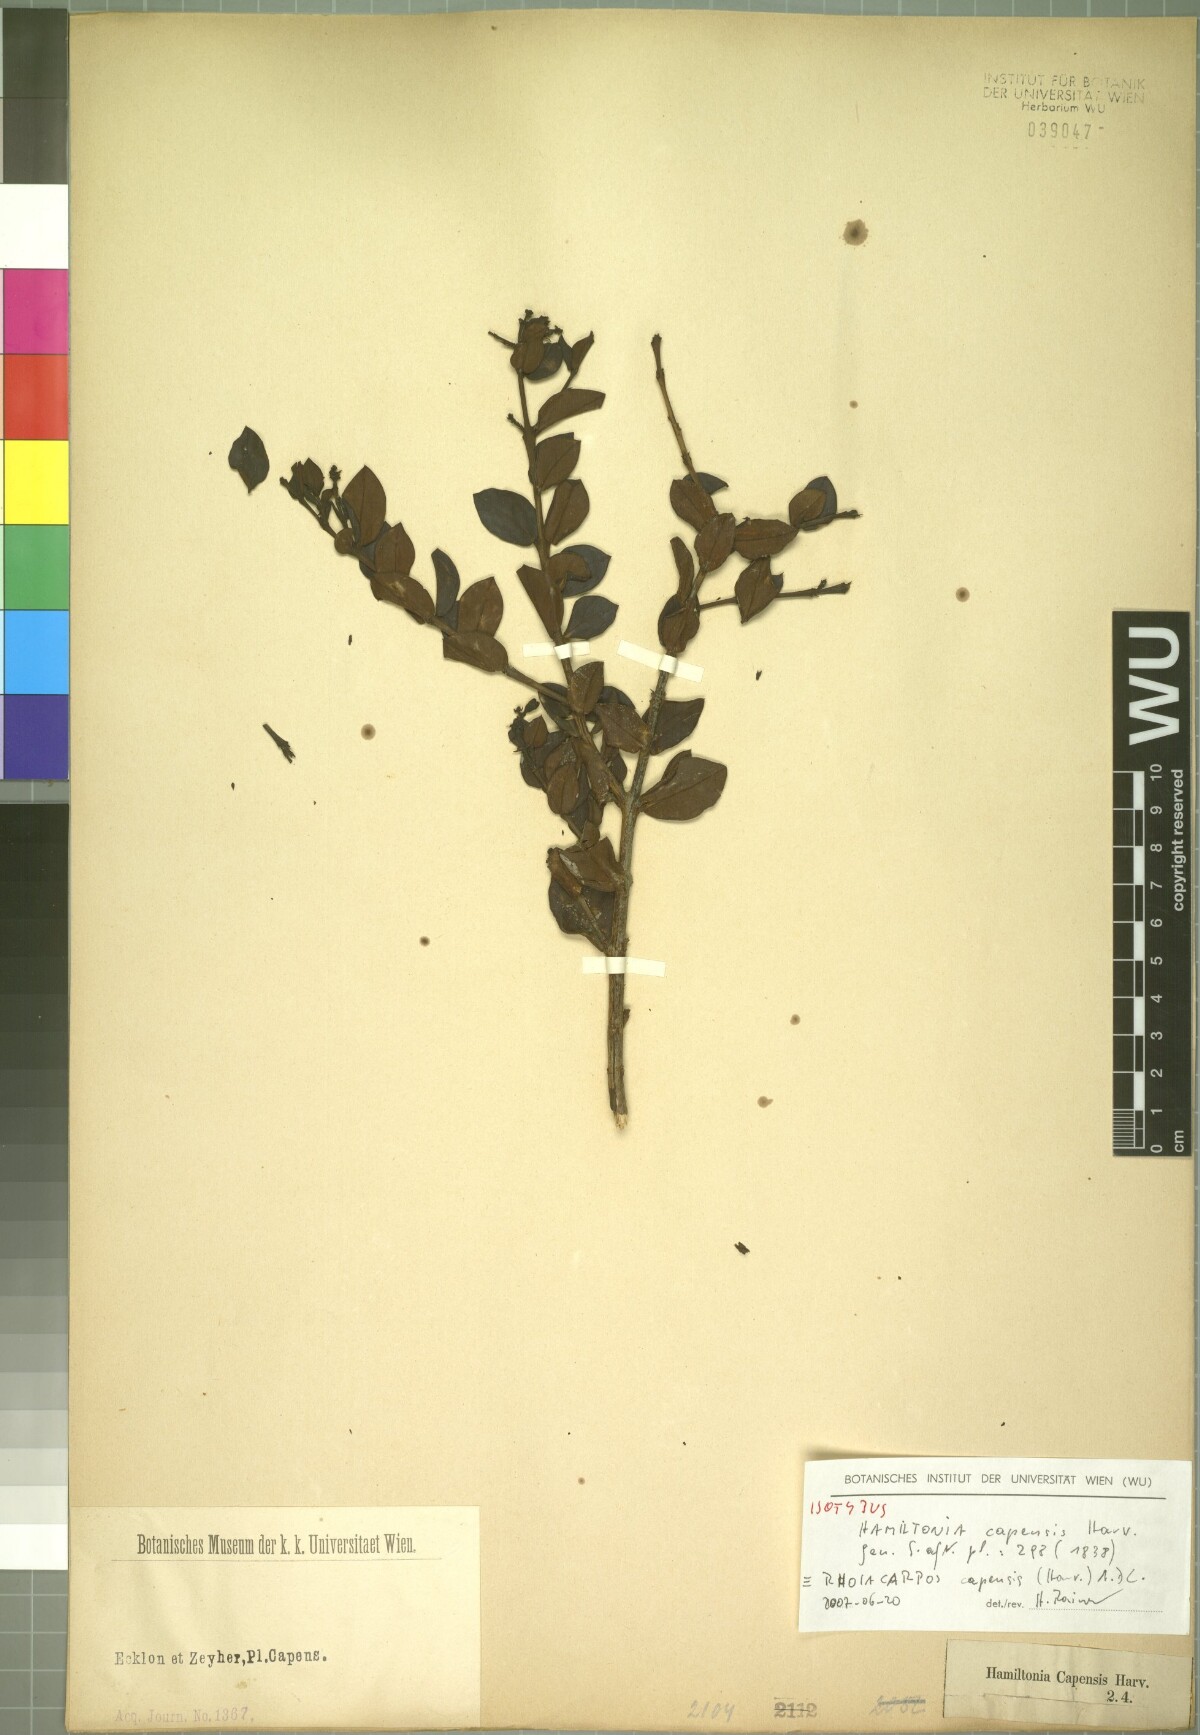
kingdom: Plantae
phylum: Tracheophyta
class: Magnoliopsida
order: Santalales
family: Santalaceae
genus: Rhoiacarpos
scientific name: Rhoiacarpos capensis
